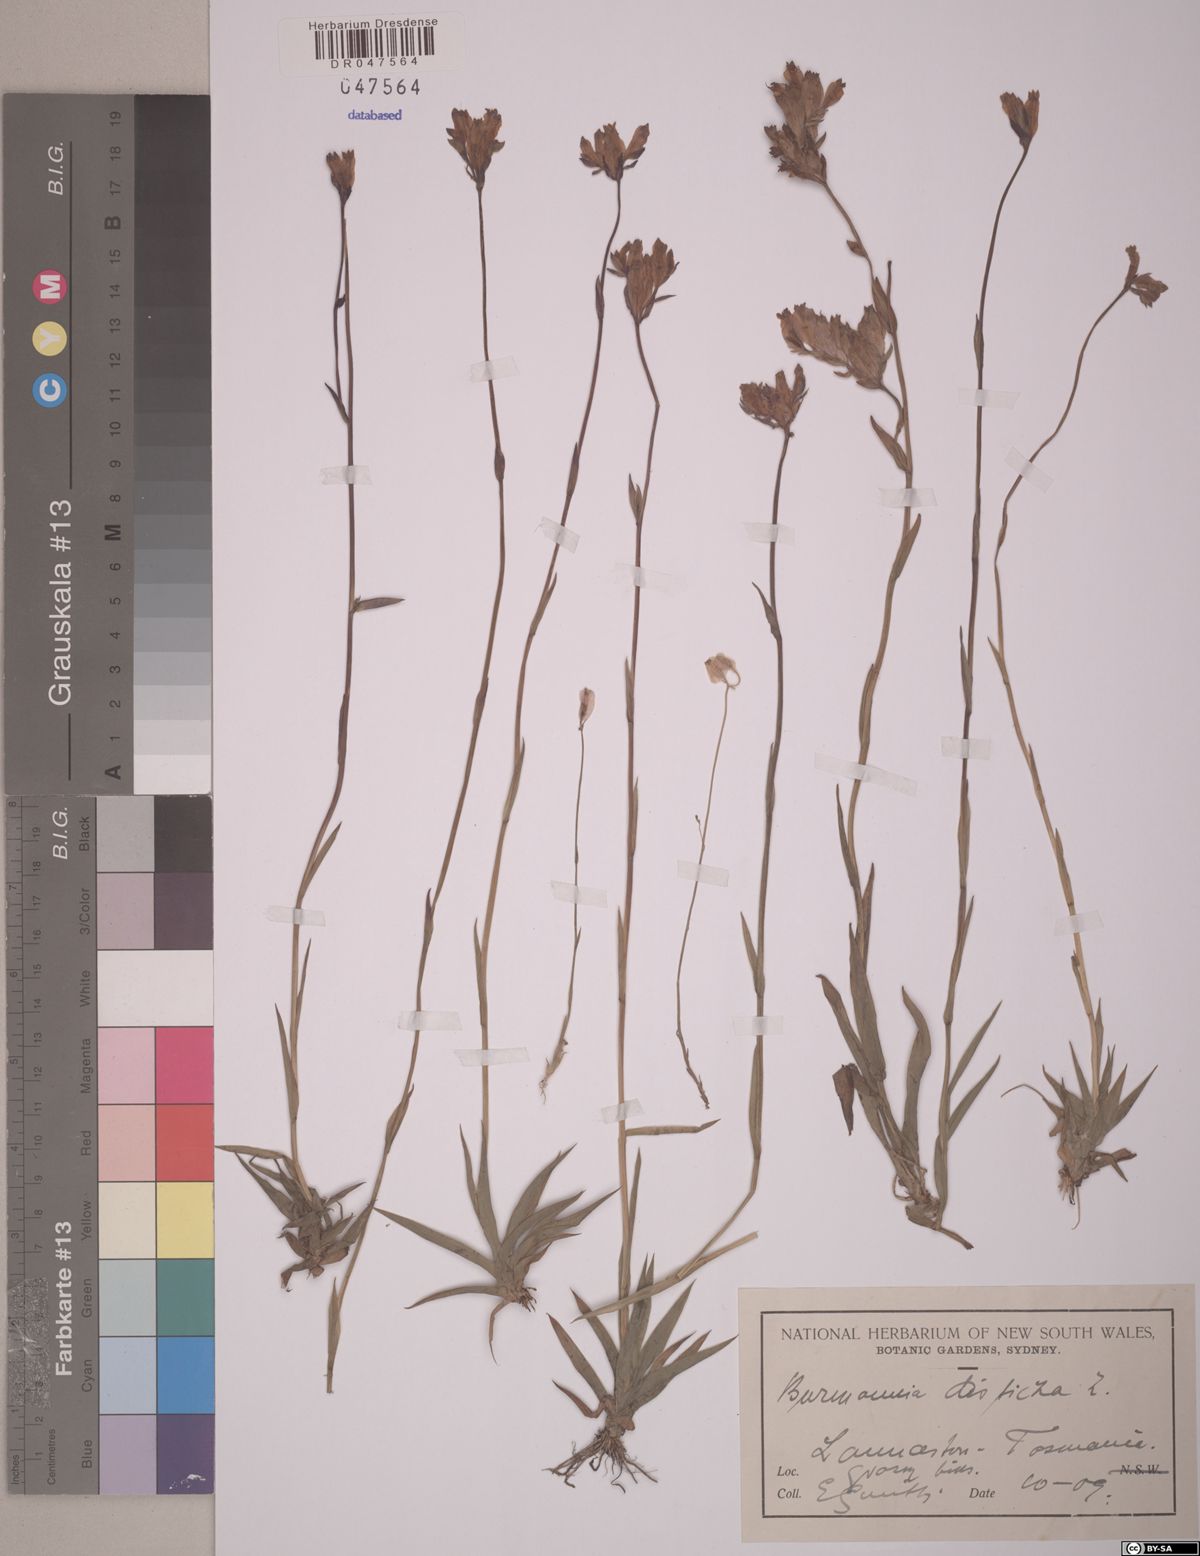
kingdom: Plantae
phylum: Tracheophyta
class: Liliopsida
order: Dioscoreales
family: Burmanniaceae
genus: Burmannia
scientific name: Burmannia disticha
